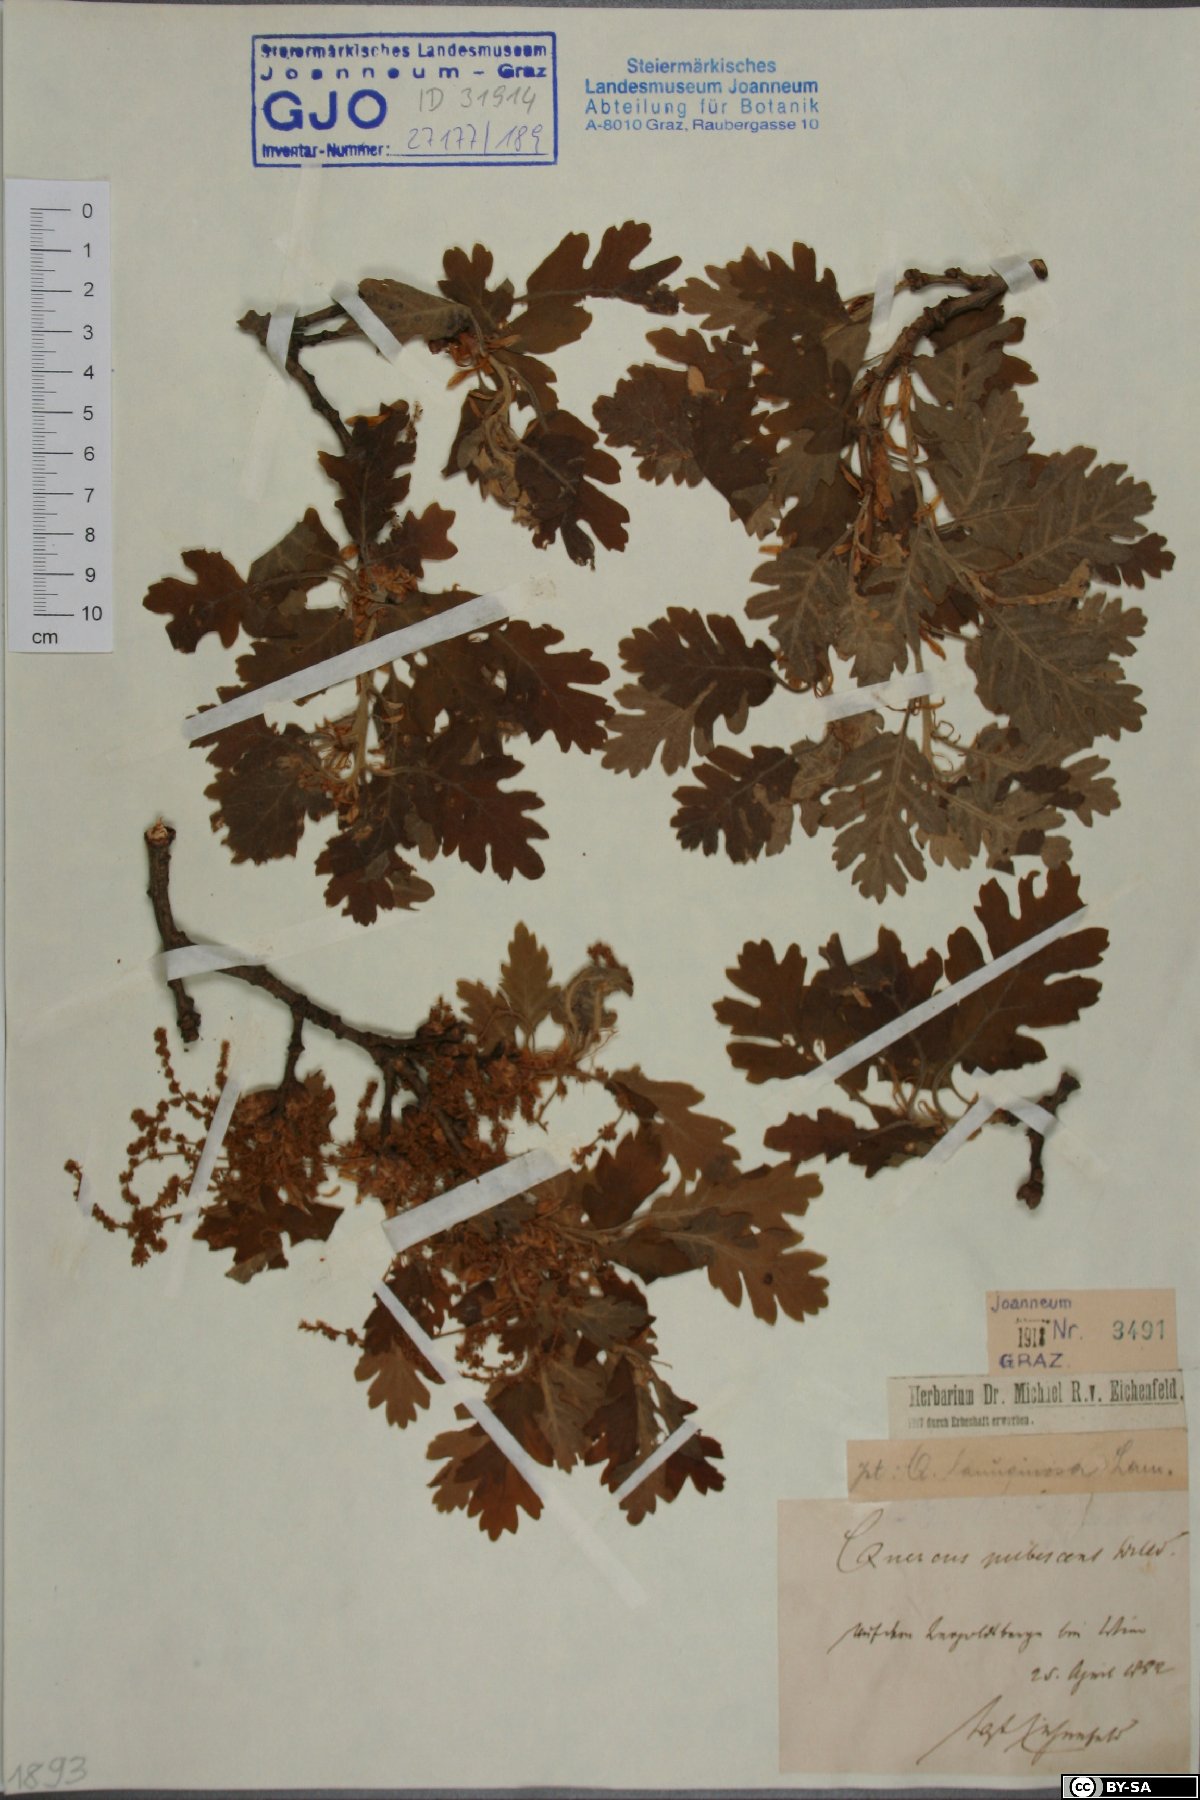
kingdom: Plantae
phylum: Tracheophyta
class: Magnoliopsida
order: Fagales
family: Fagaceae
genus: Quercus
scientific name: Quercus pubescens
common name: Downy oak
